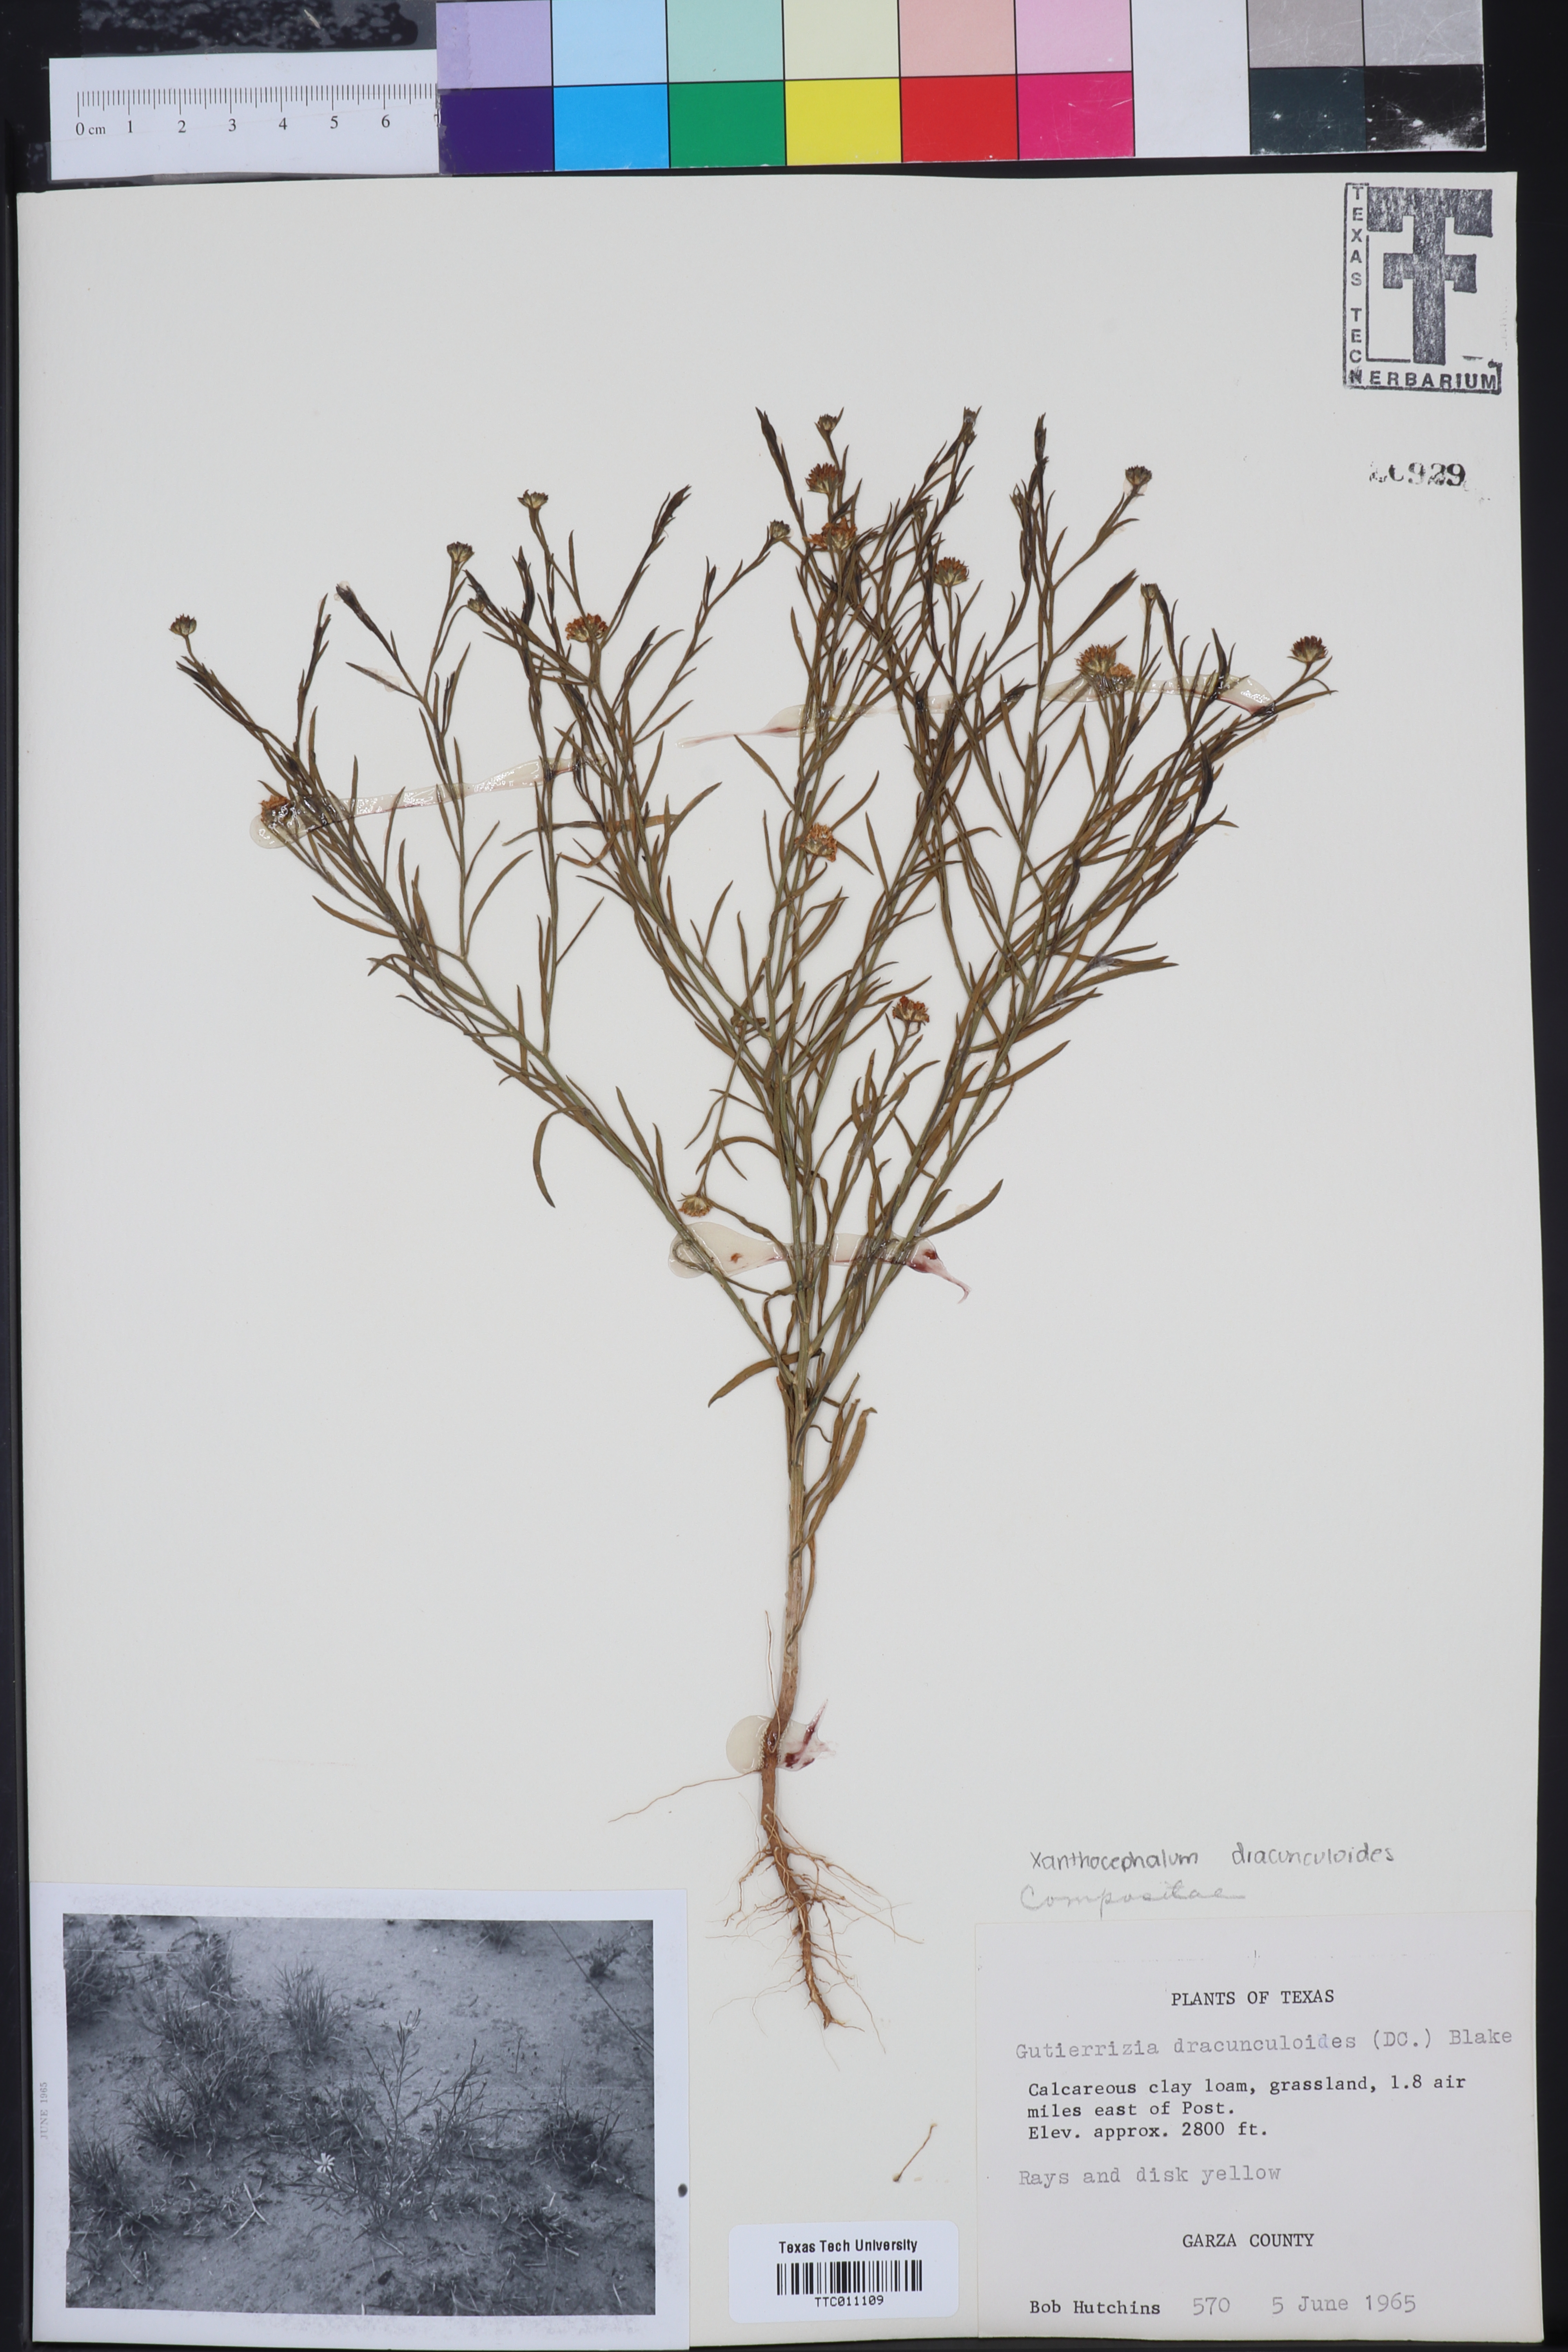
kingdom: Plantae
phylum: Tracheophyta
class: Magnoliopsida
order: Asterales
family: Asteraceae
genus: Amphiachyris
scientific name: Amphiachyris dracunculoides
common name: Broomweed
